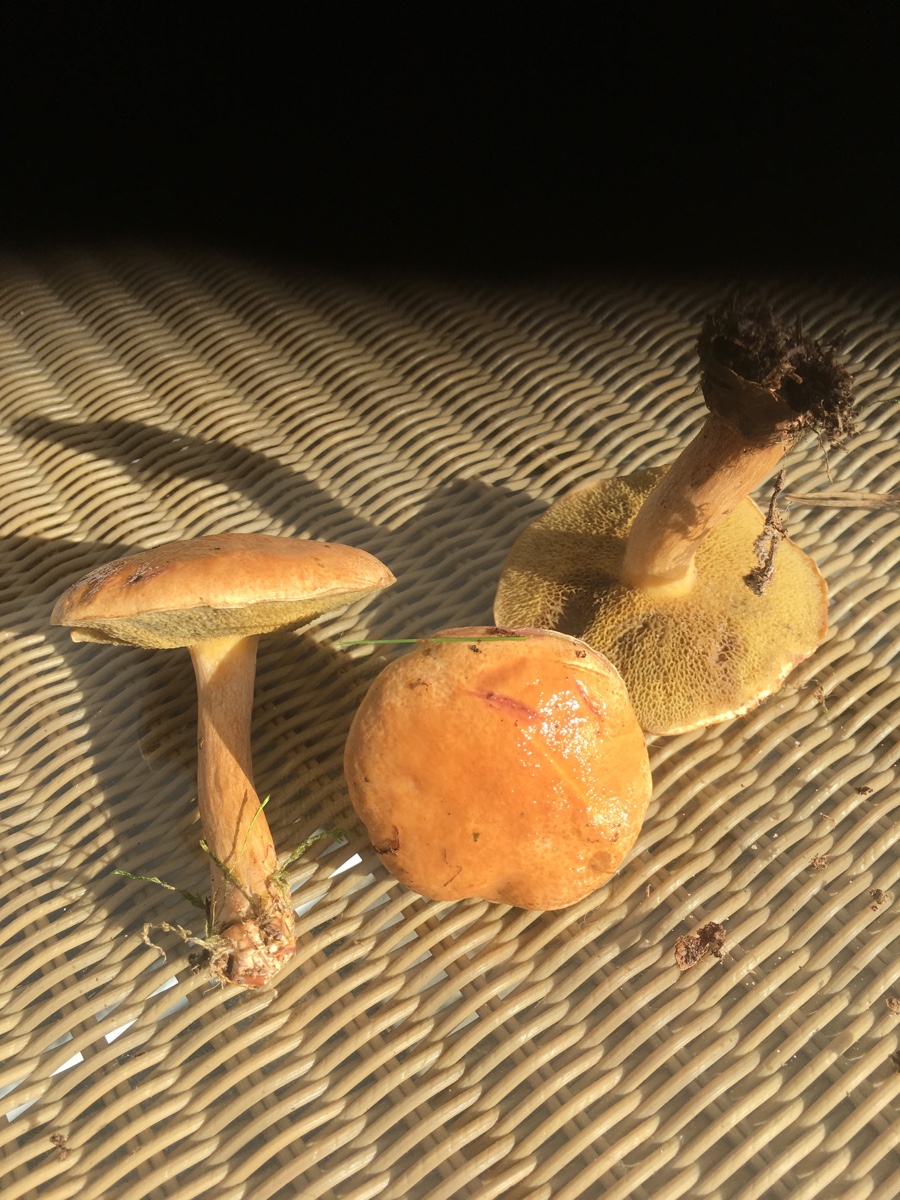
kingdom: Fungi
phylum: Basidiomycota
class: Agaricomycetes
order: Boletales
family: Suillaceae
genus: Suillus
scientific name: Suillus bovinus
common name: grovporet slimrørhat
